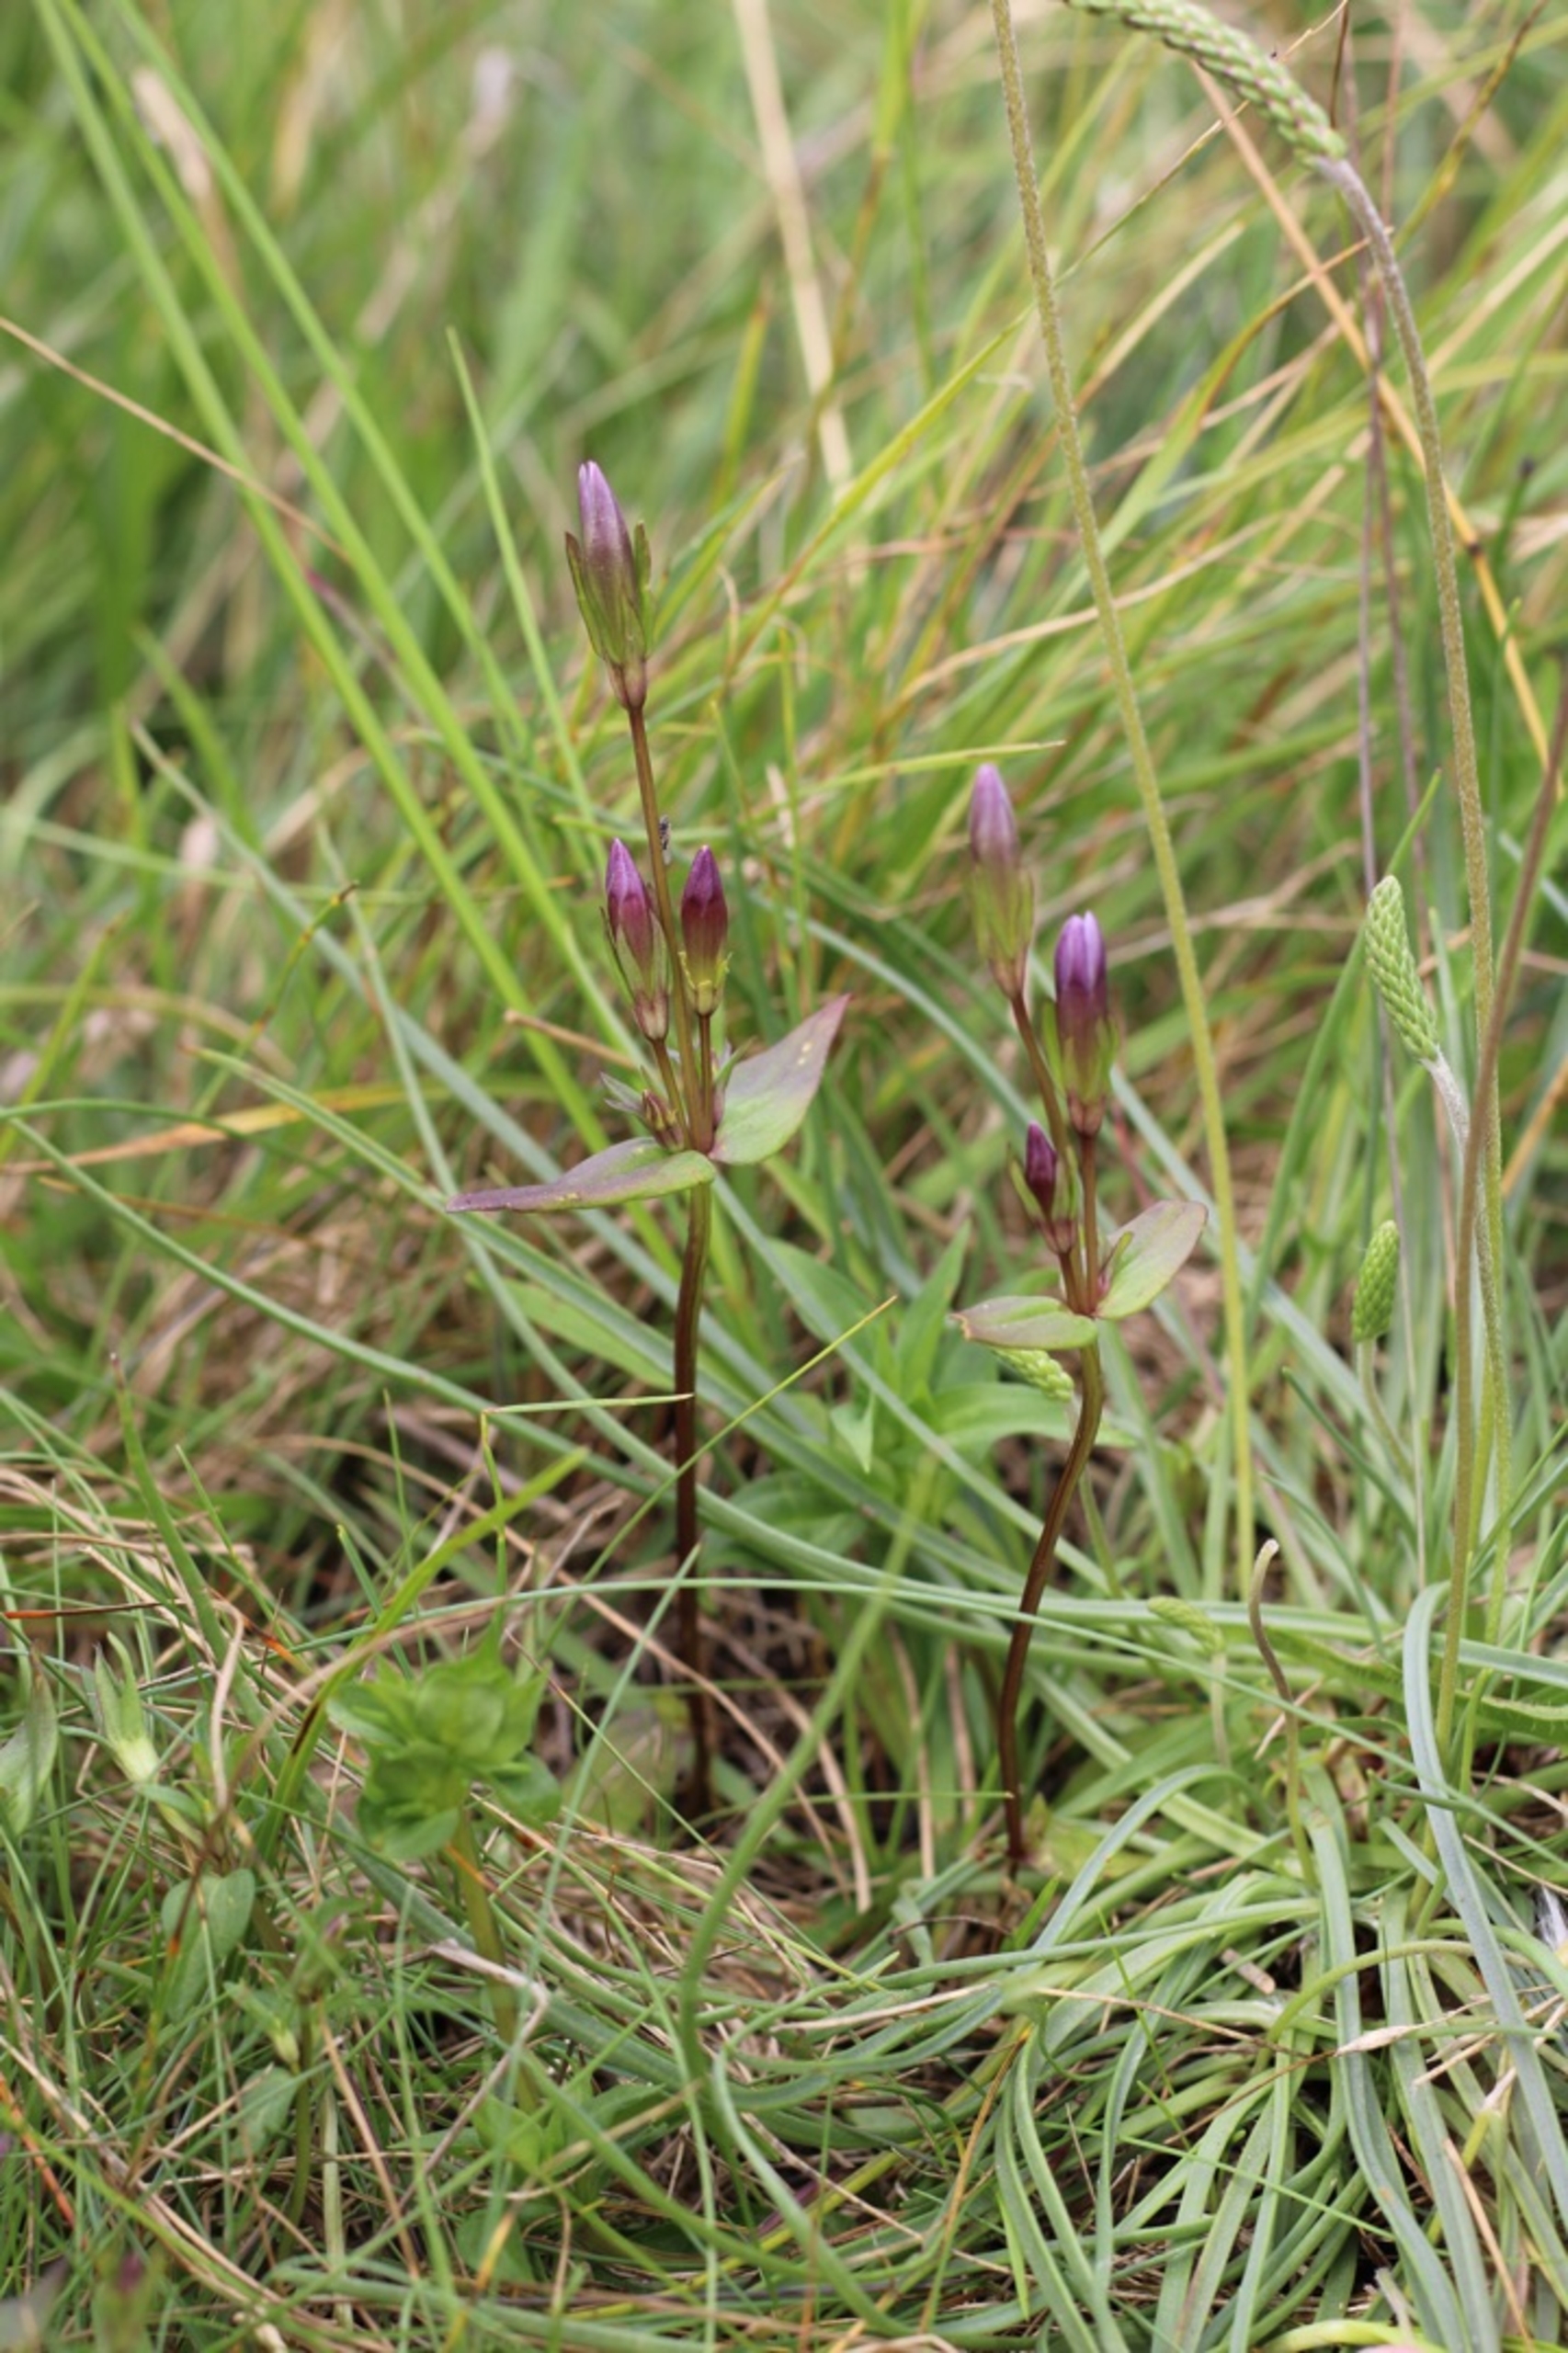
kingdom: Plantae
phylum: Tracheophyta
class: Magnoliopsida
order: Gentianales
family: Gentianaceae
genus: Gentianella
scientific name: Gentianella uliginosa
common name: Eng-ensian
